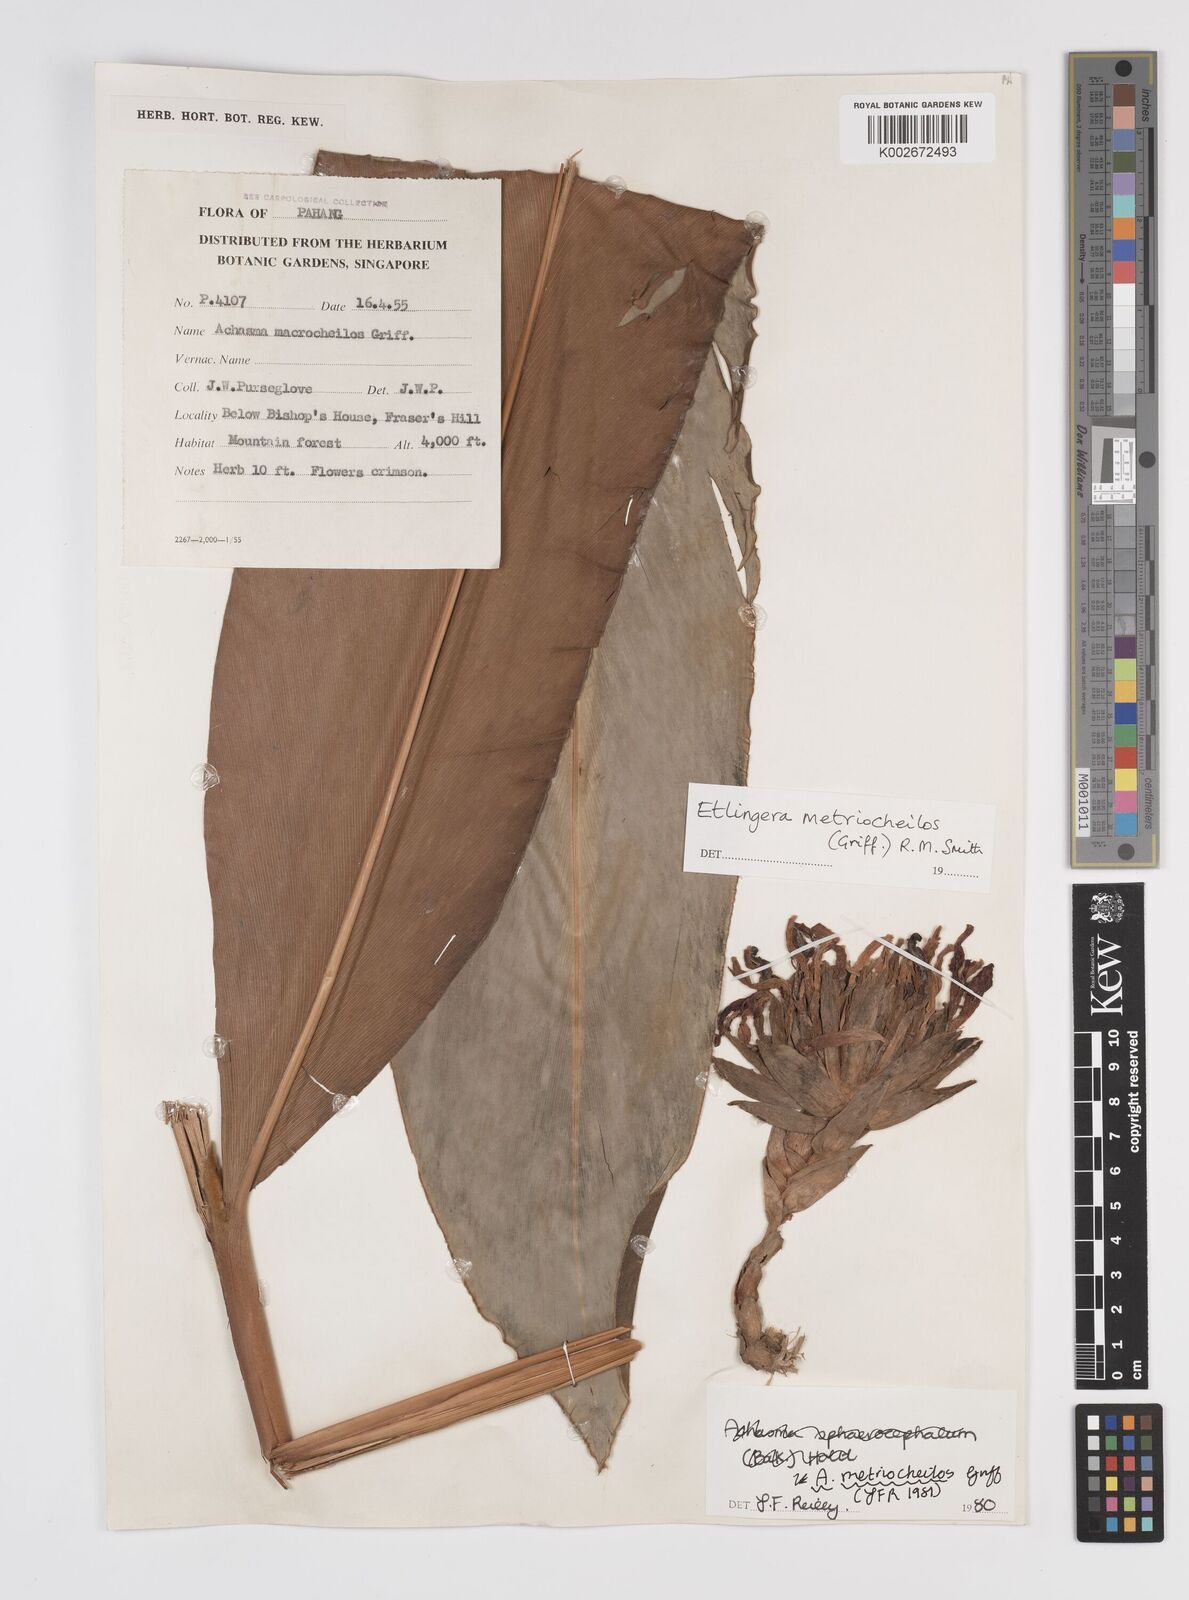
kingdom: Plantae
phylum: Tracheophyta
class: Liliopsida
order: Zingiberales
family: Zingiberaceae
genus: Etlingera
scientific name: Etlingera metriocheilos
